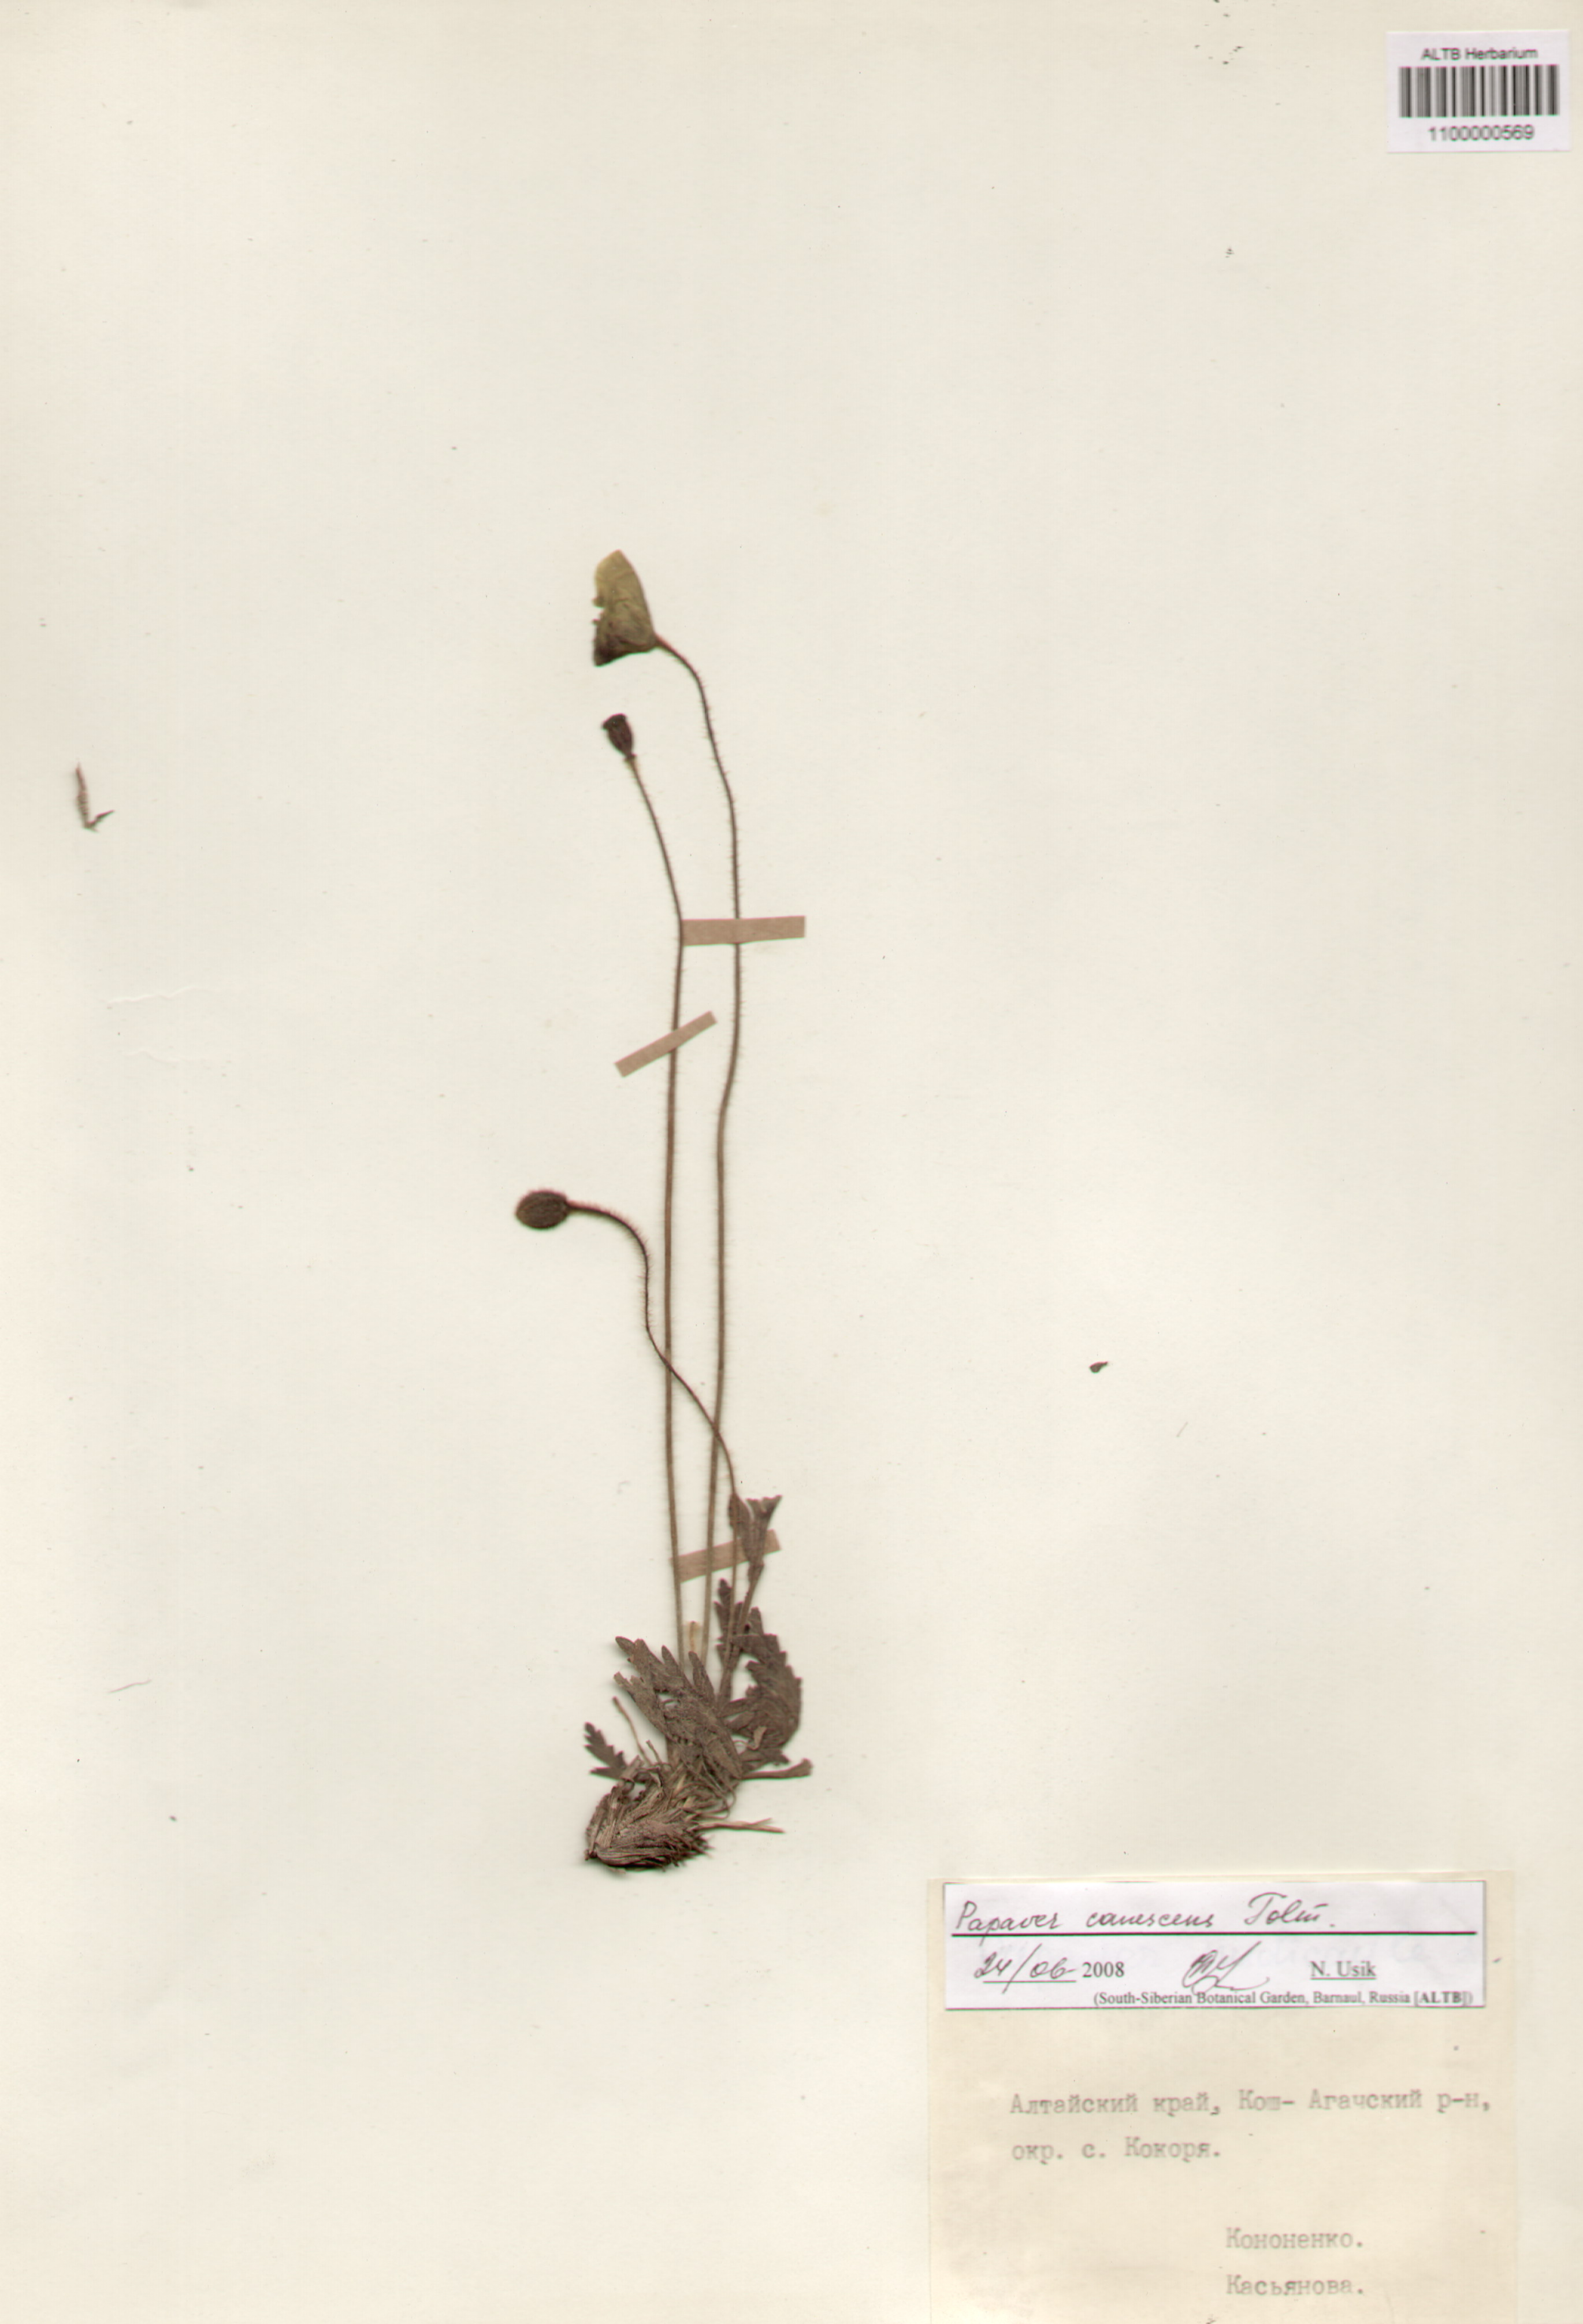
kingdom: Plantae
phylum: Tracheophyta
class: Magnoliopsida
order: Ranunculales
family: Papaveraceae
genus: Papaver
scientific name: Papaver canescens
